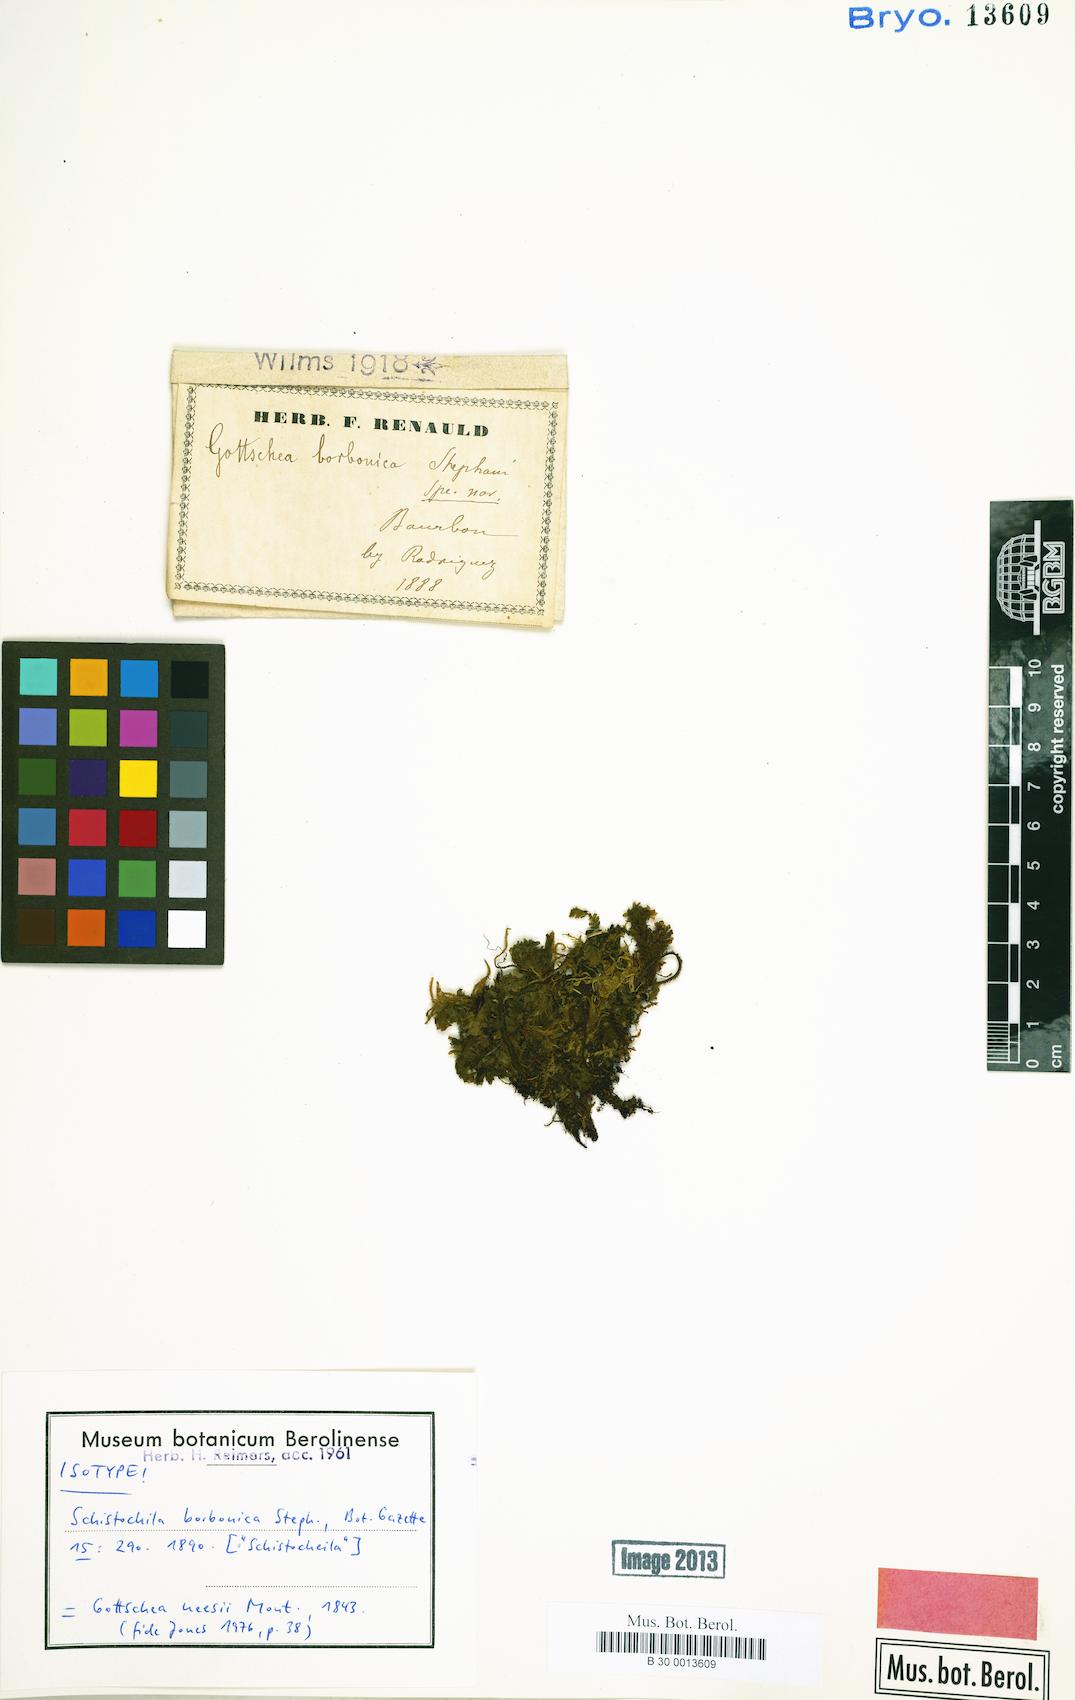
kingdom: Plantae
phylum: Marchantiophyta
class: Jungermanniopsida
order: Jungermanniales
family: Schistochilaceae
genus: Schistochila
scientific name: Schistochila neesii
